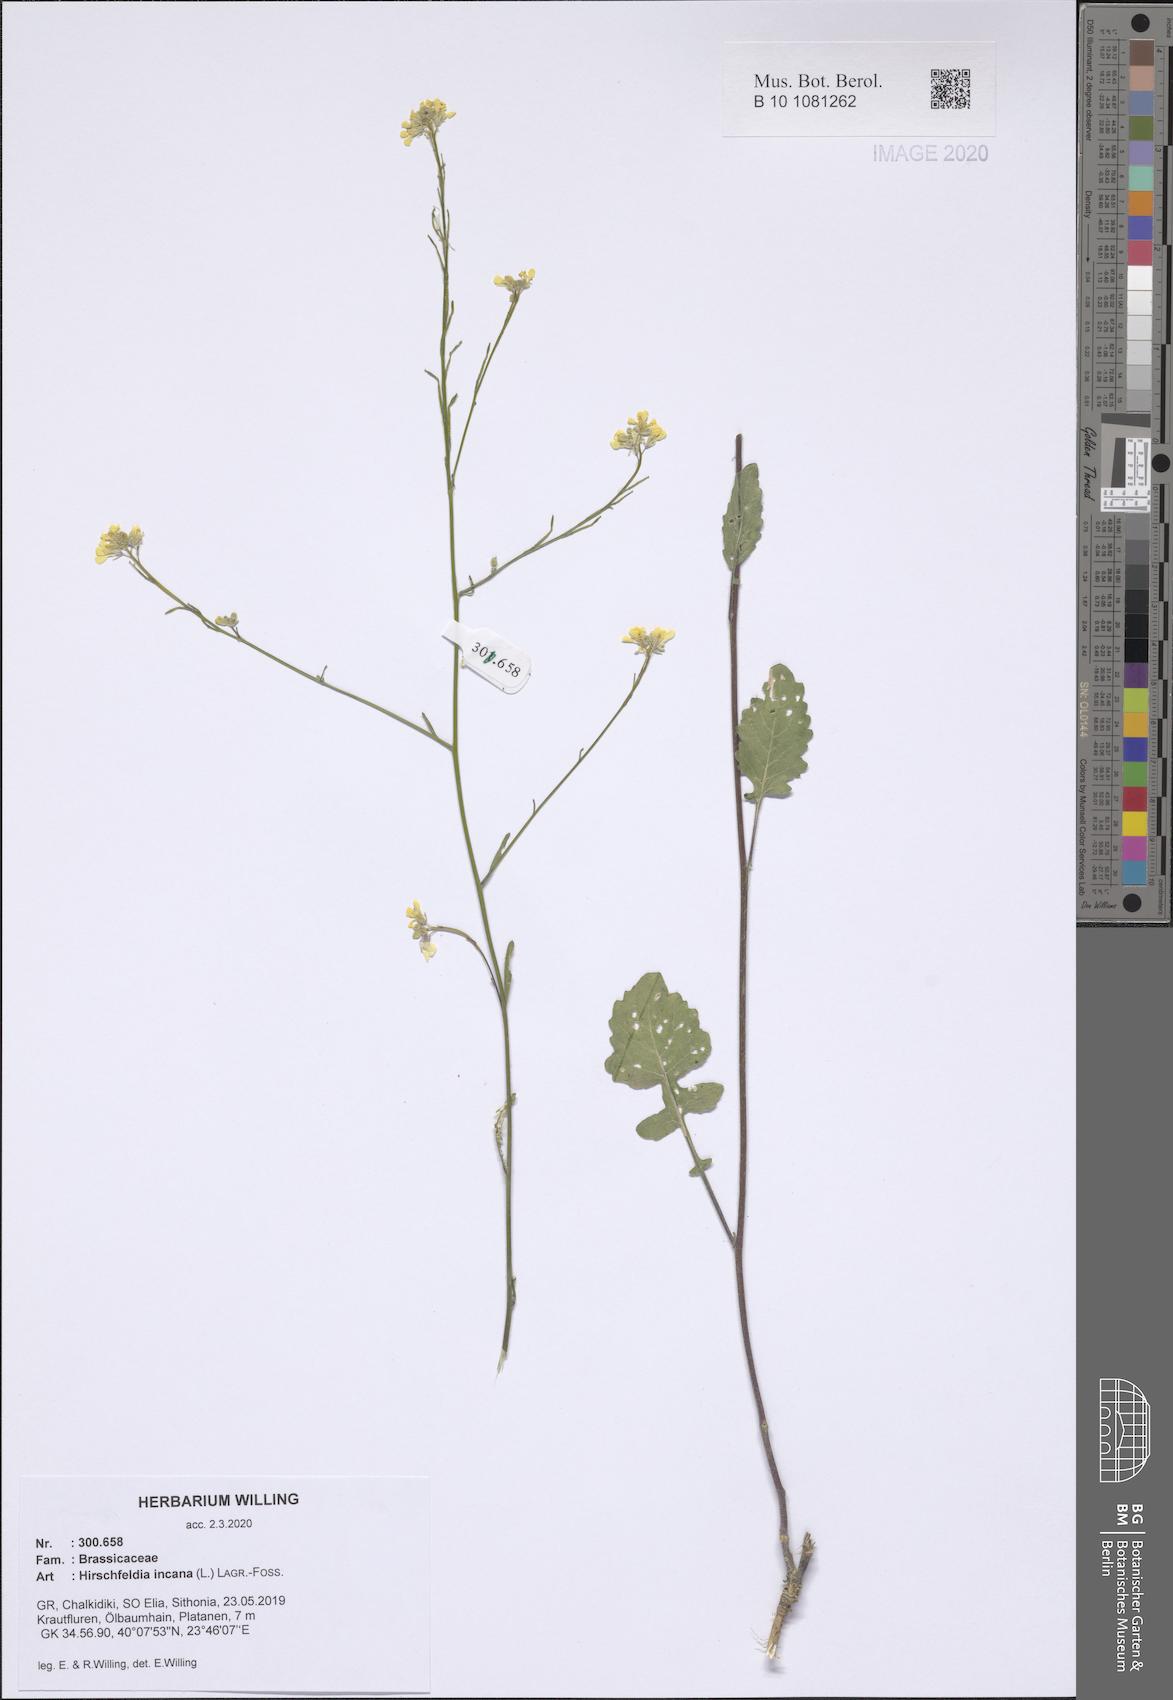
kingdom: Plantae
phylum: Tracheophyta
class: Magnoliopsida
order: Brassicales
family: Brassicaceae
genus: Hirschfeldia
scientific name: Hirschfeldia incana
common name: Hoary mustard
